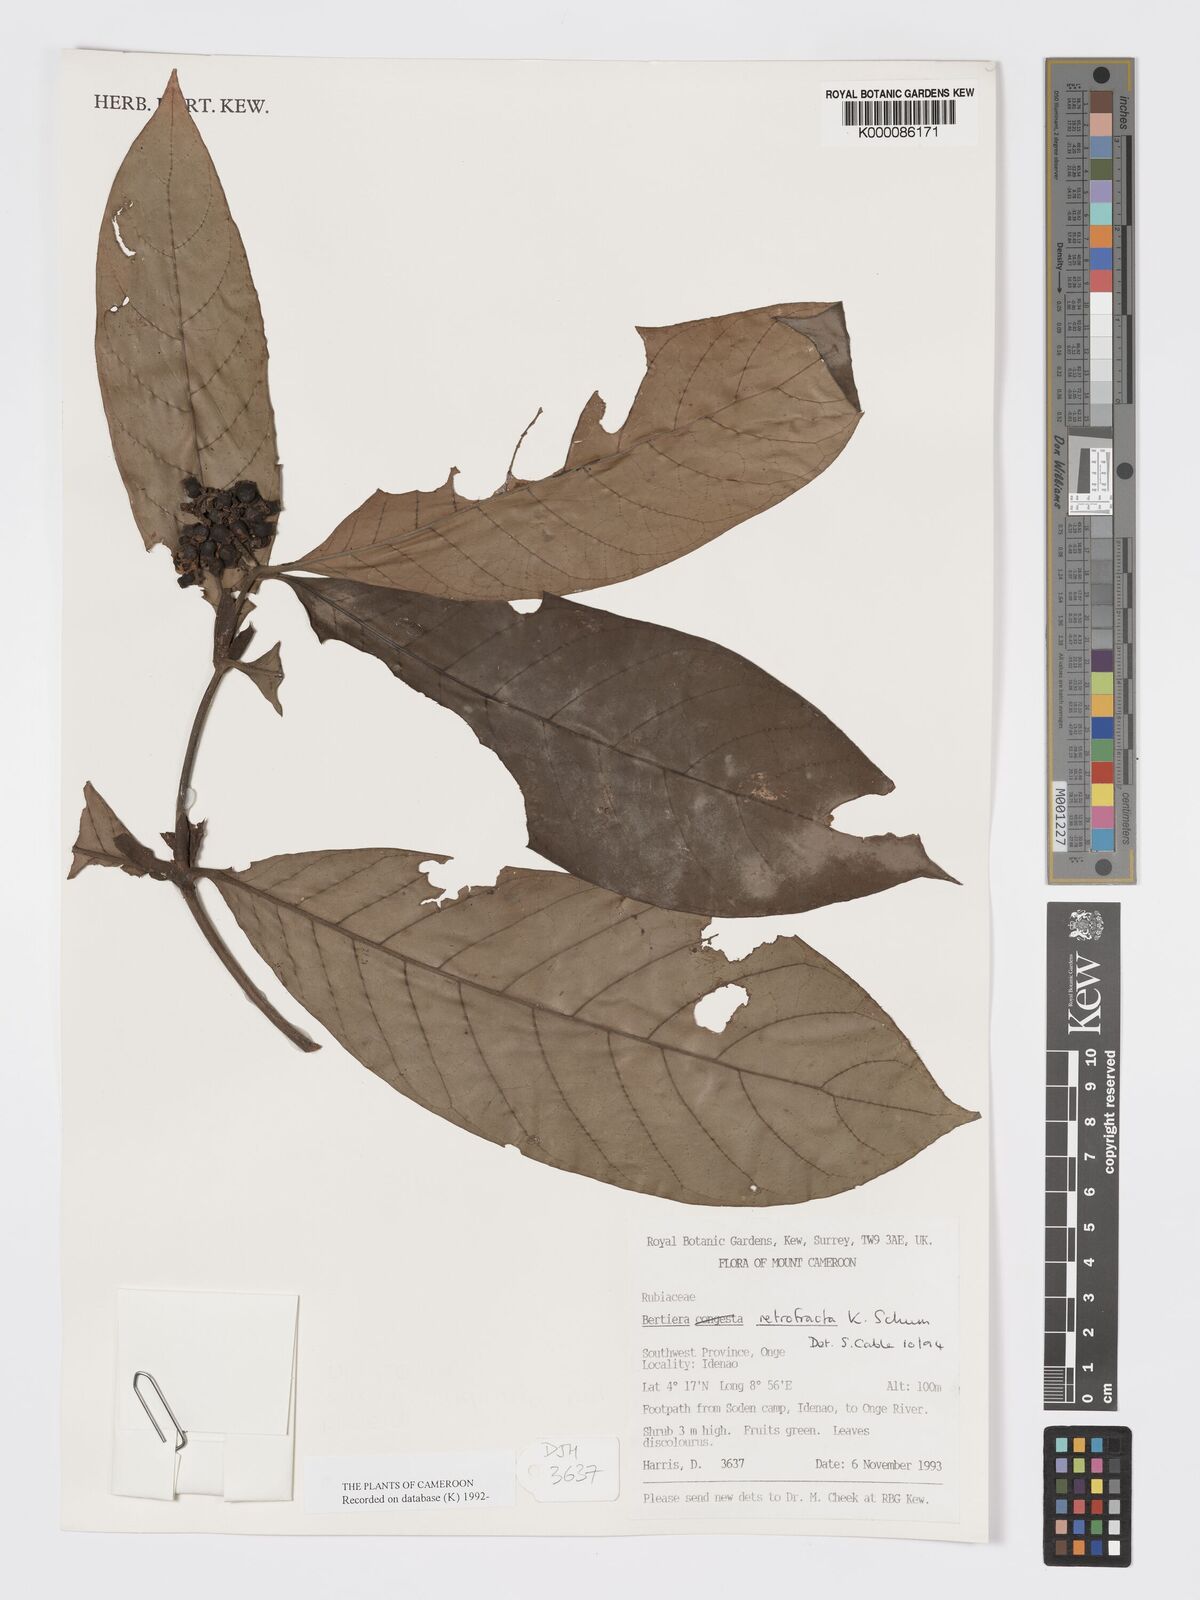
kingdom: Plantae
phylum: Tracheophyta
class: Magnoliopsida
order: Gentianales
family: Rubiaceae
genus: Bertiera
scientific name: Bertiera retrofracta
